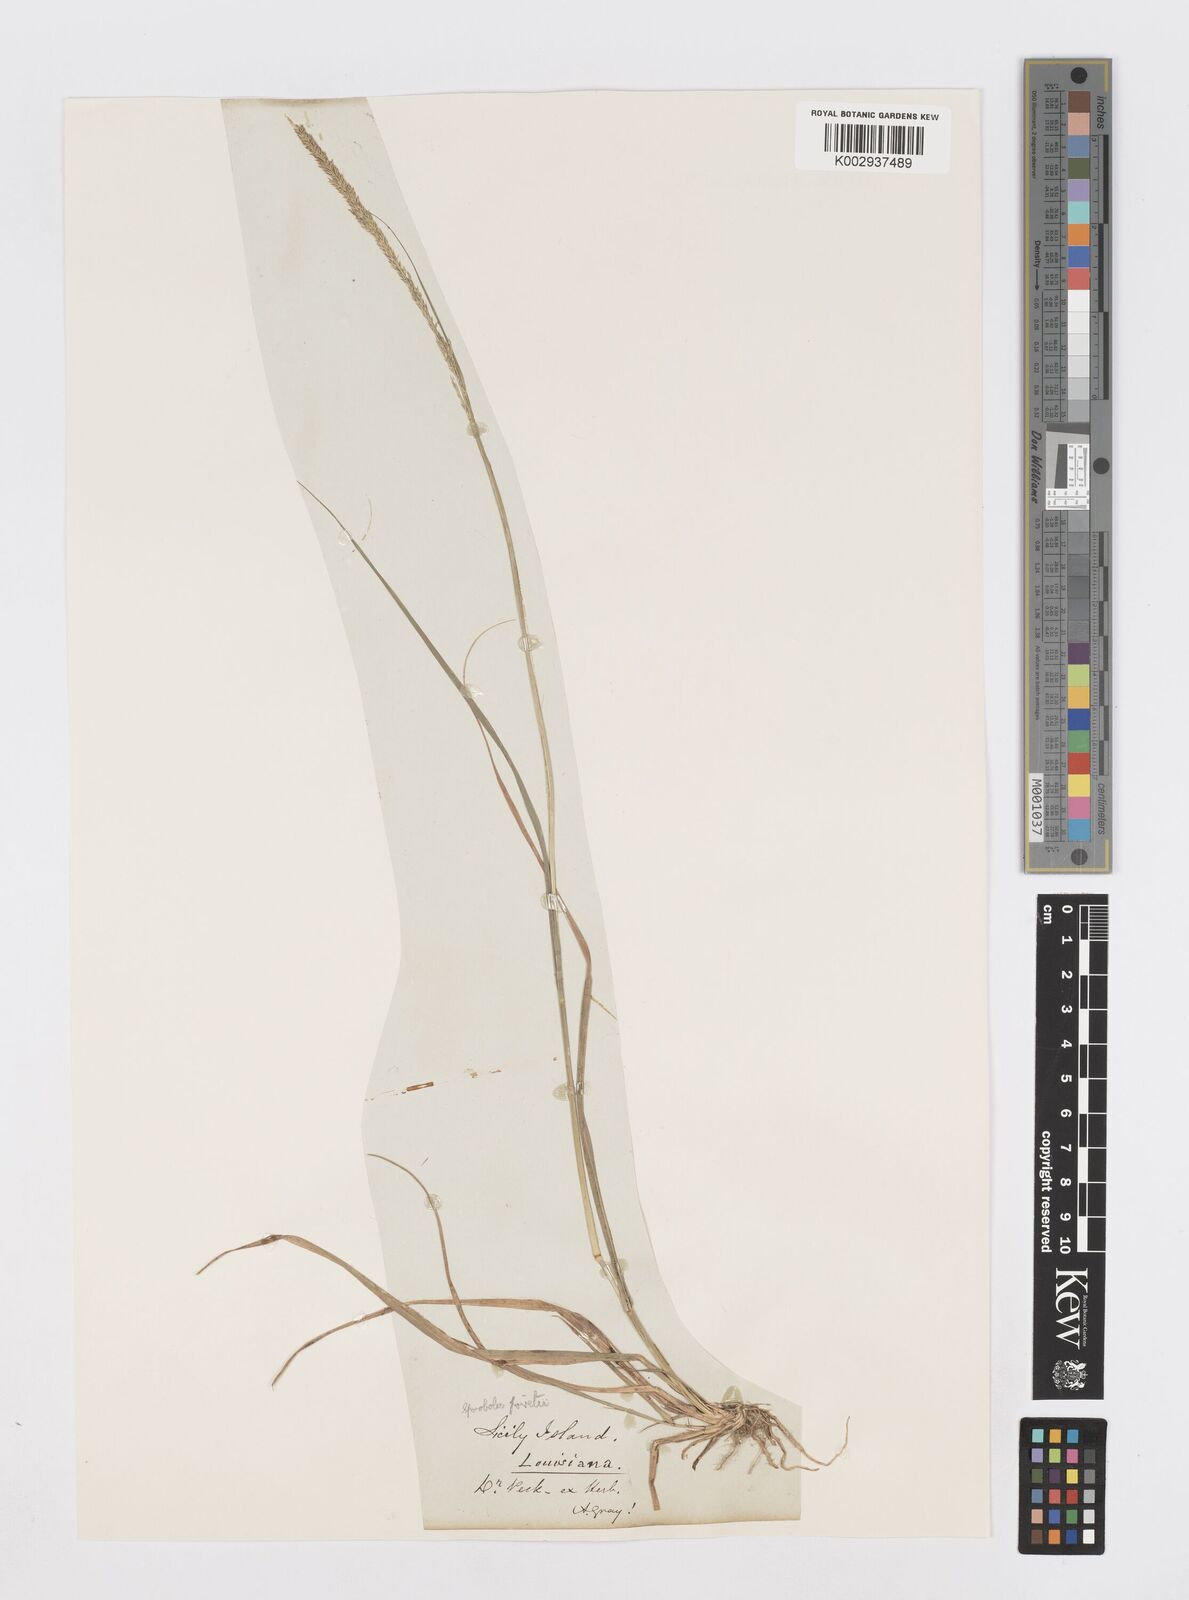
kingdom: Plantae
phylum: Tracheophyta
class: Liliopsida
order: Poales
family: Poaceae
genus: Sporobolus
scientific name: Sporobolus junceus
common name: Lizard grass
